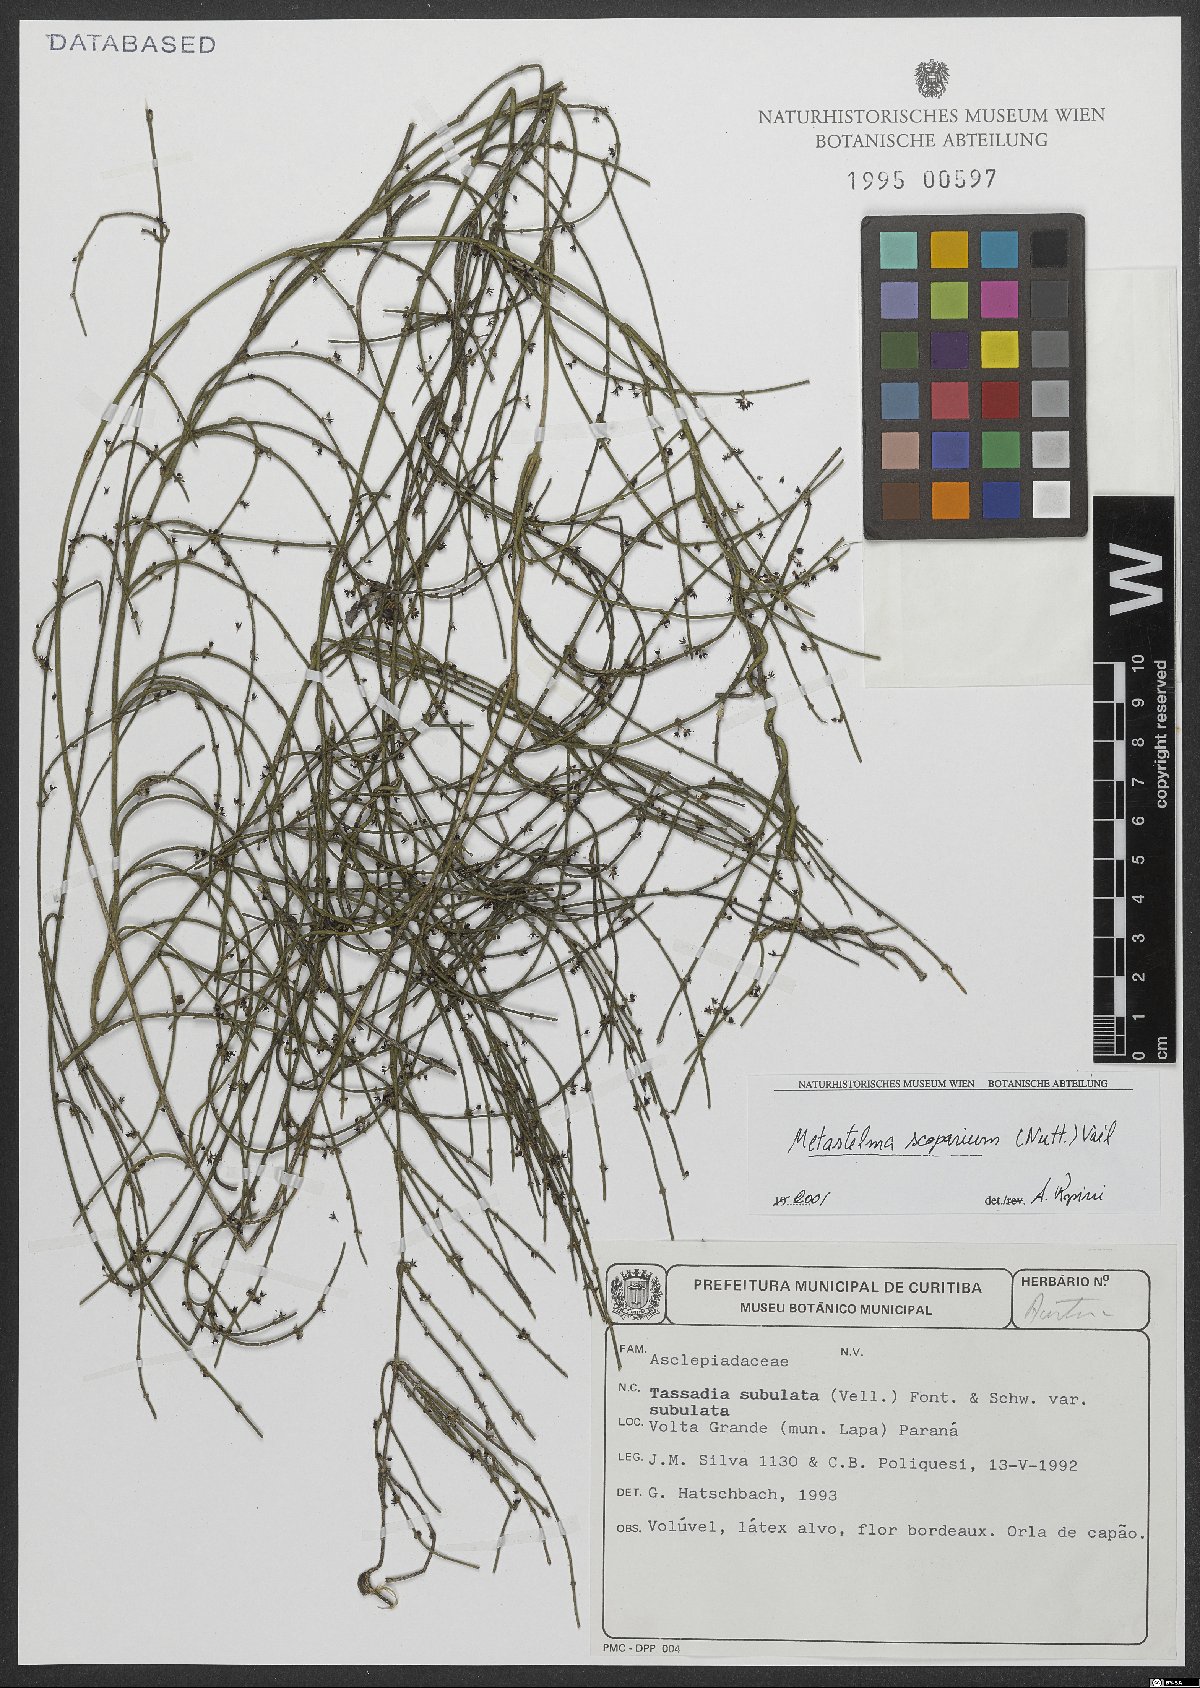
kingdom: Plantae
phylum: Tracheophyta
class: Magnoliopsida
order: Gentianales
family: Apocynaceae
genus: Orthosia
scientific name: Orthosia scoparia
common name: Leafless swallow-wort
